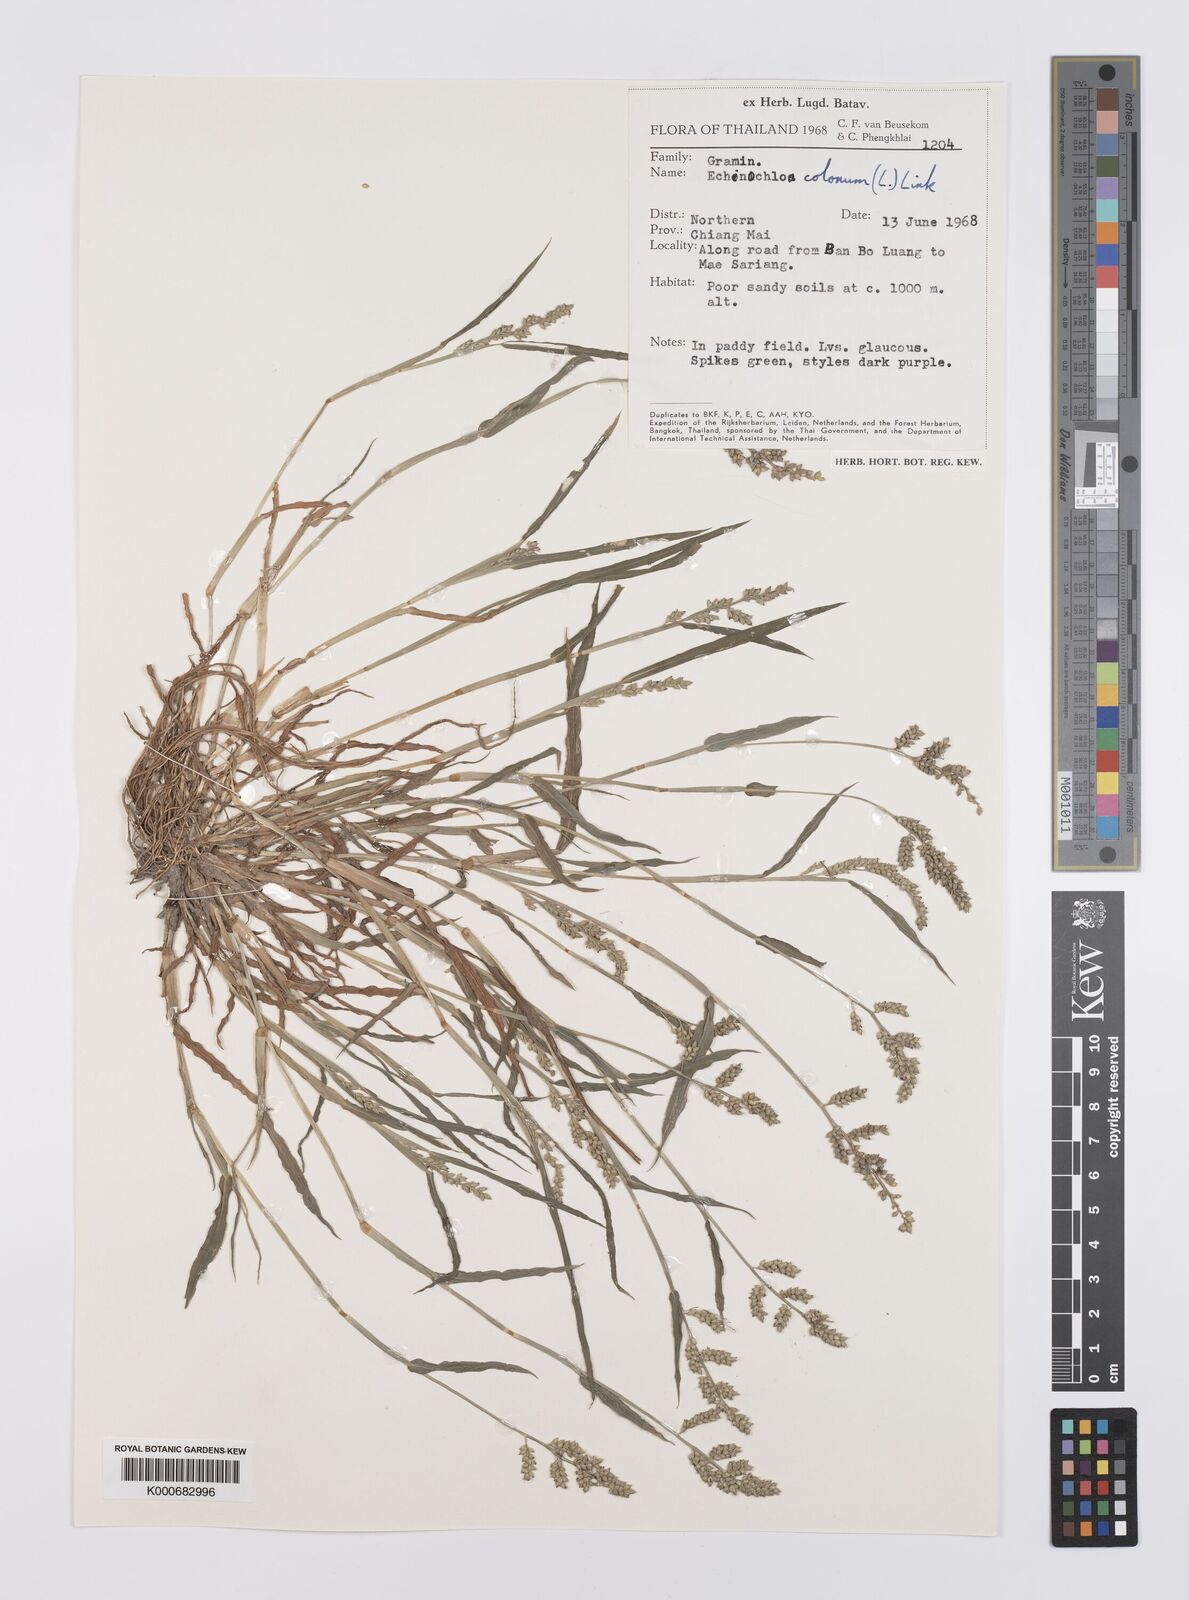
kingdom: Plantae
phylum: Tracheophyta
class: Liliopsida
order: Poales
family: Poaceae
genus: Echinochloa
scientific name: Echinochloa colonum
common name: Jungle rice
